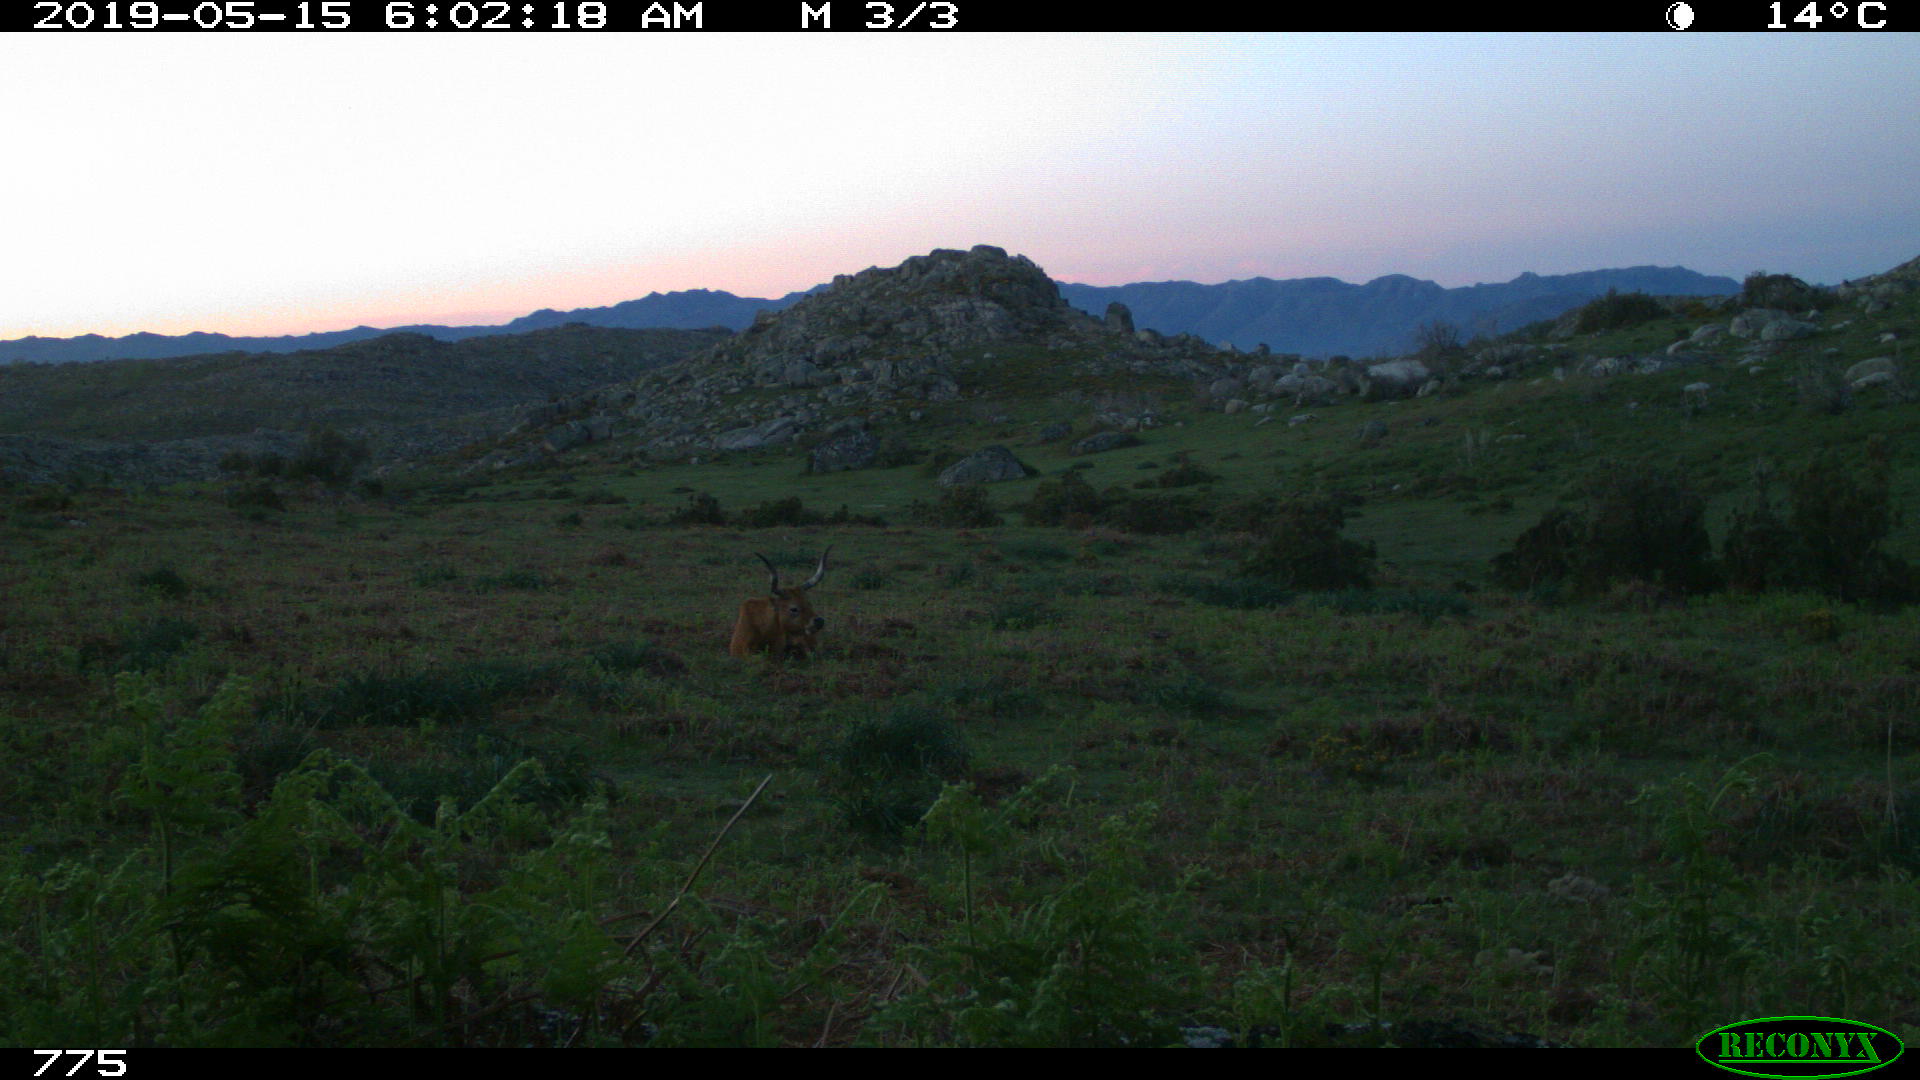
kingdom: Animalia
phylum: Chordata
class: Mammalia
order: Artiodactyla
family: Bovidae
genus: Bos
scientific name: Bos taurus
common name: Domesticated cattle
